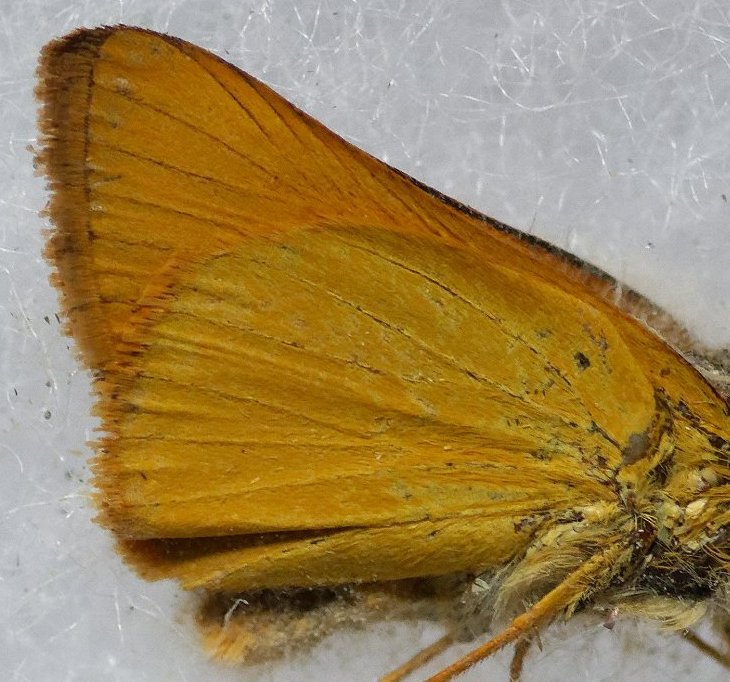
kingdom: Animalia
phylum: Arthropoda
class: Insecta
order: Lepidoptera
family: Hesperiidae
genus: Atrytone
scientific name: Atrytone delaware
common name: Delaware Skipper
